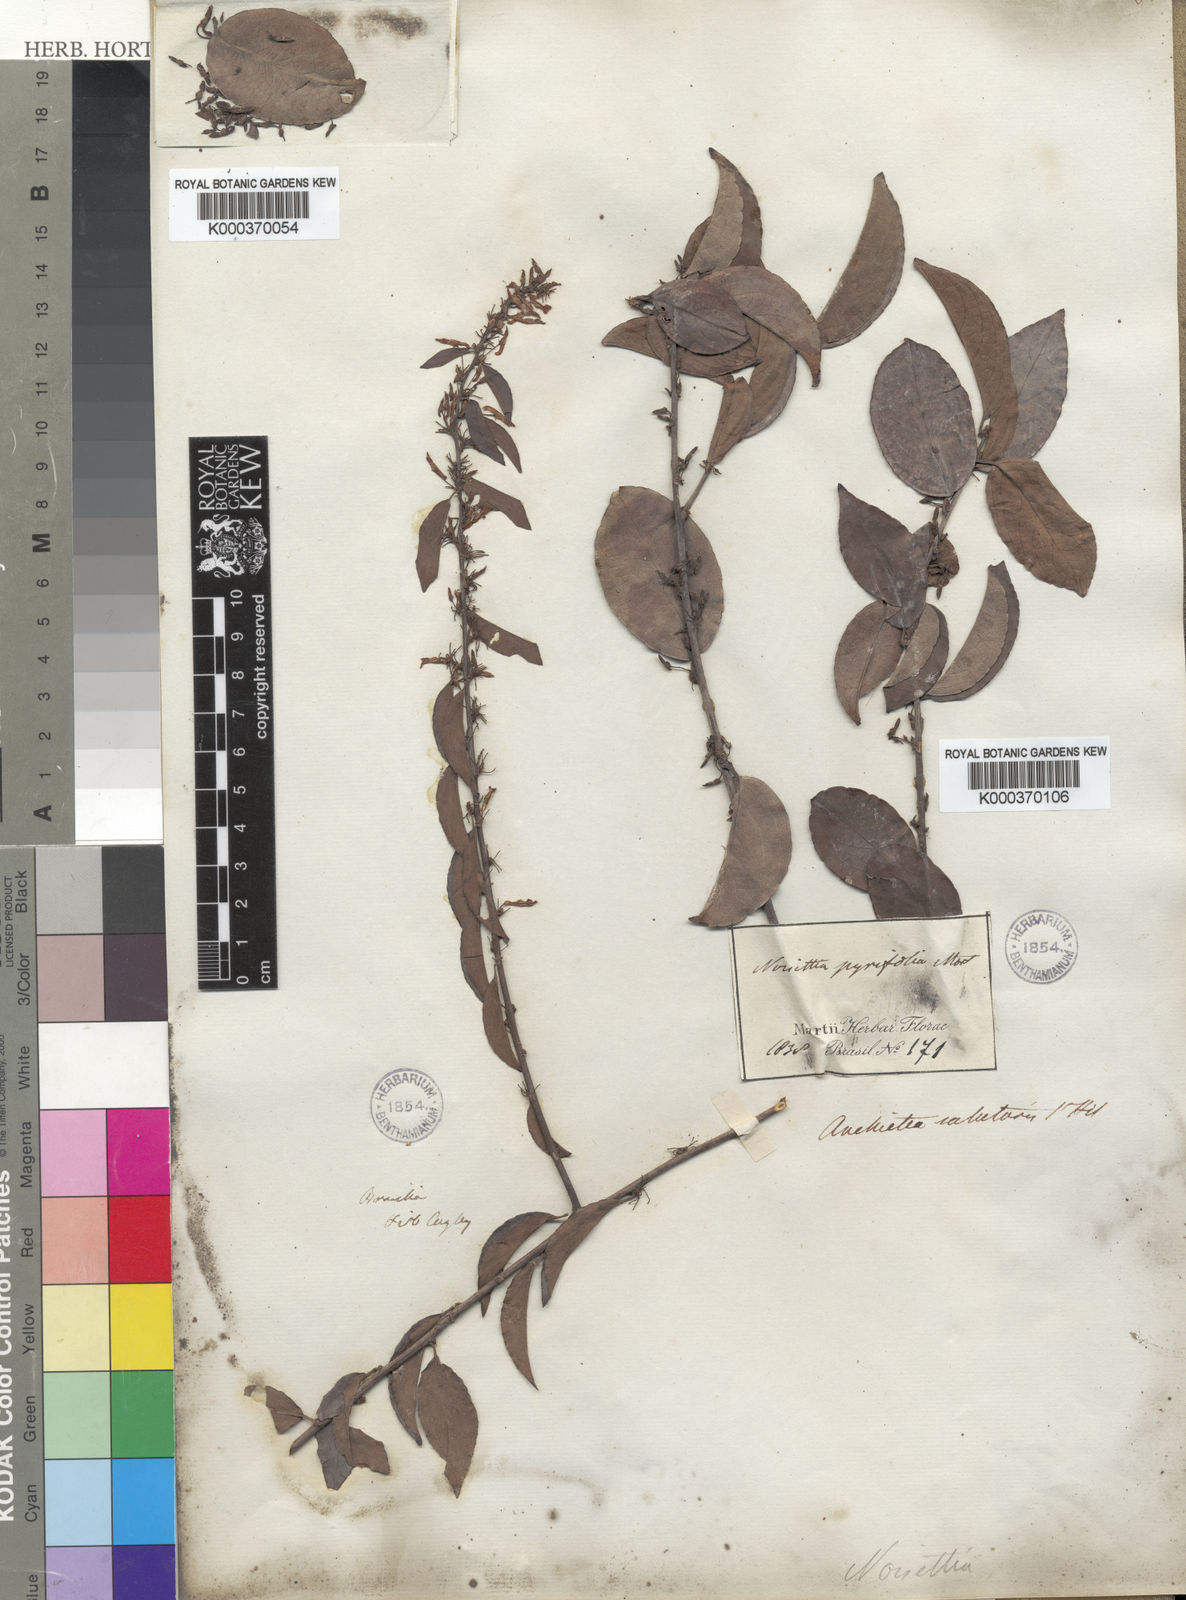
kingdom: Plantae
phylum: Tracheophyta
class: Magnoliopsida
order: Malpighiales
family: Violaceae
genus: Anchietea
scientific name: Anchietea
